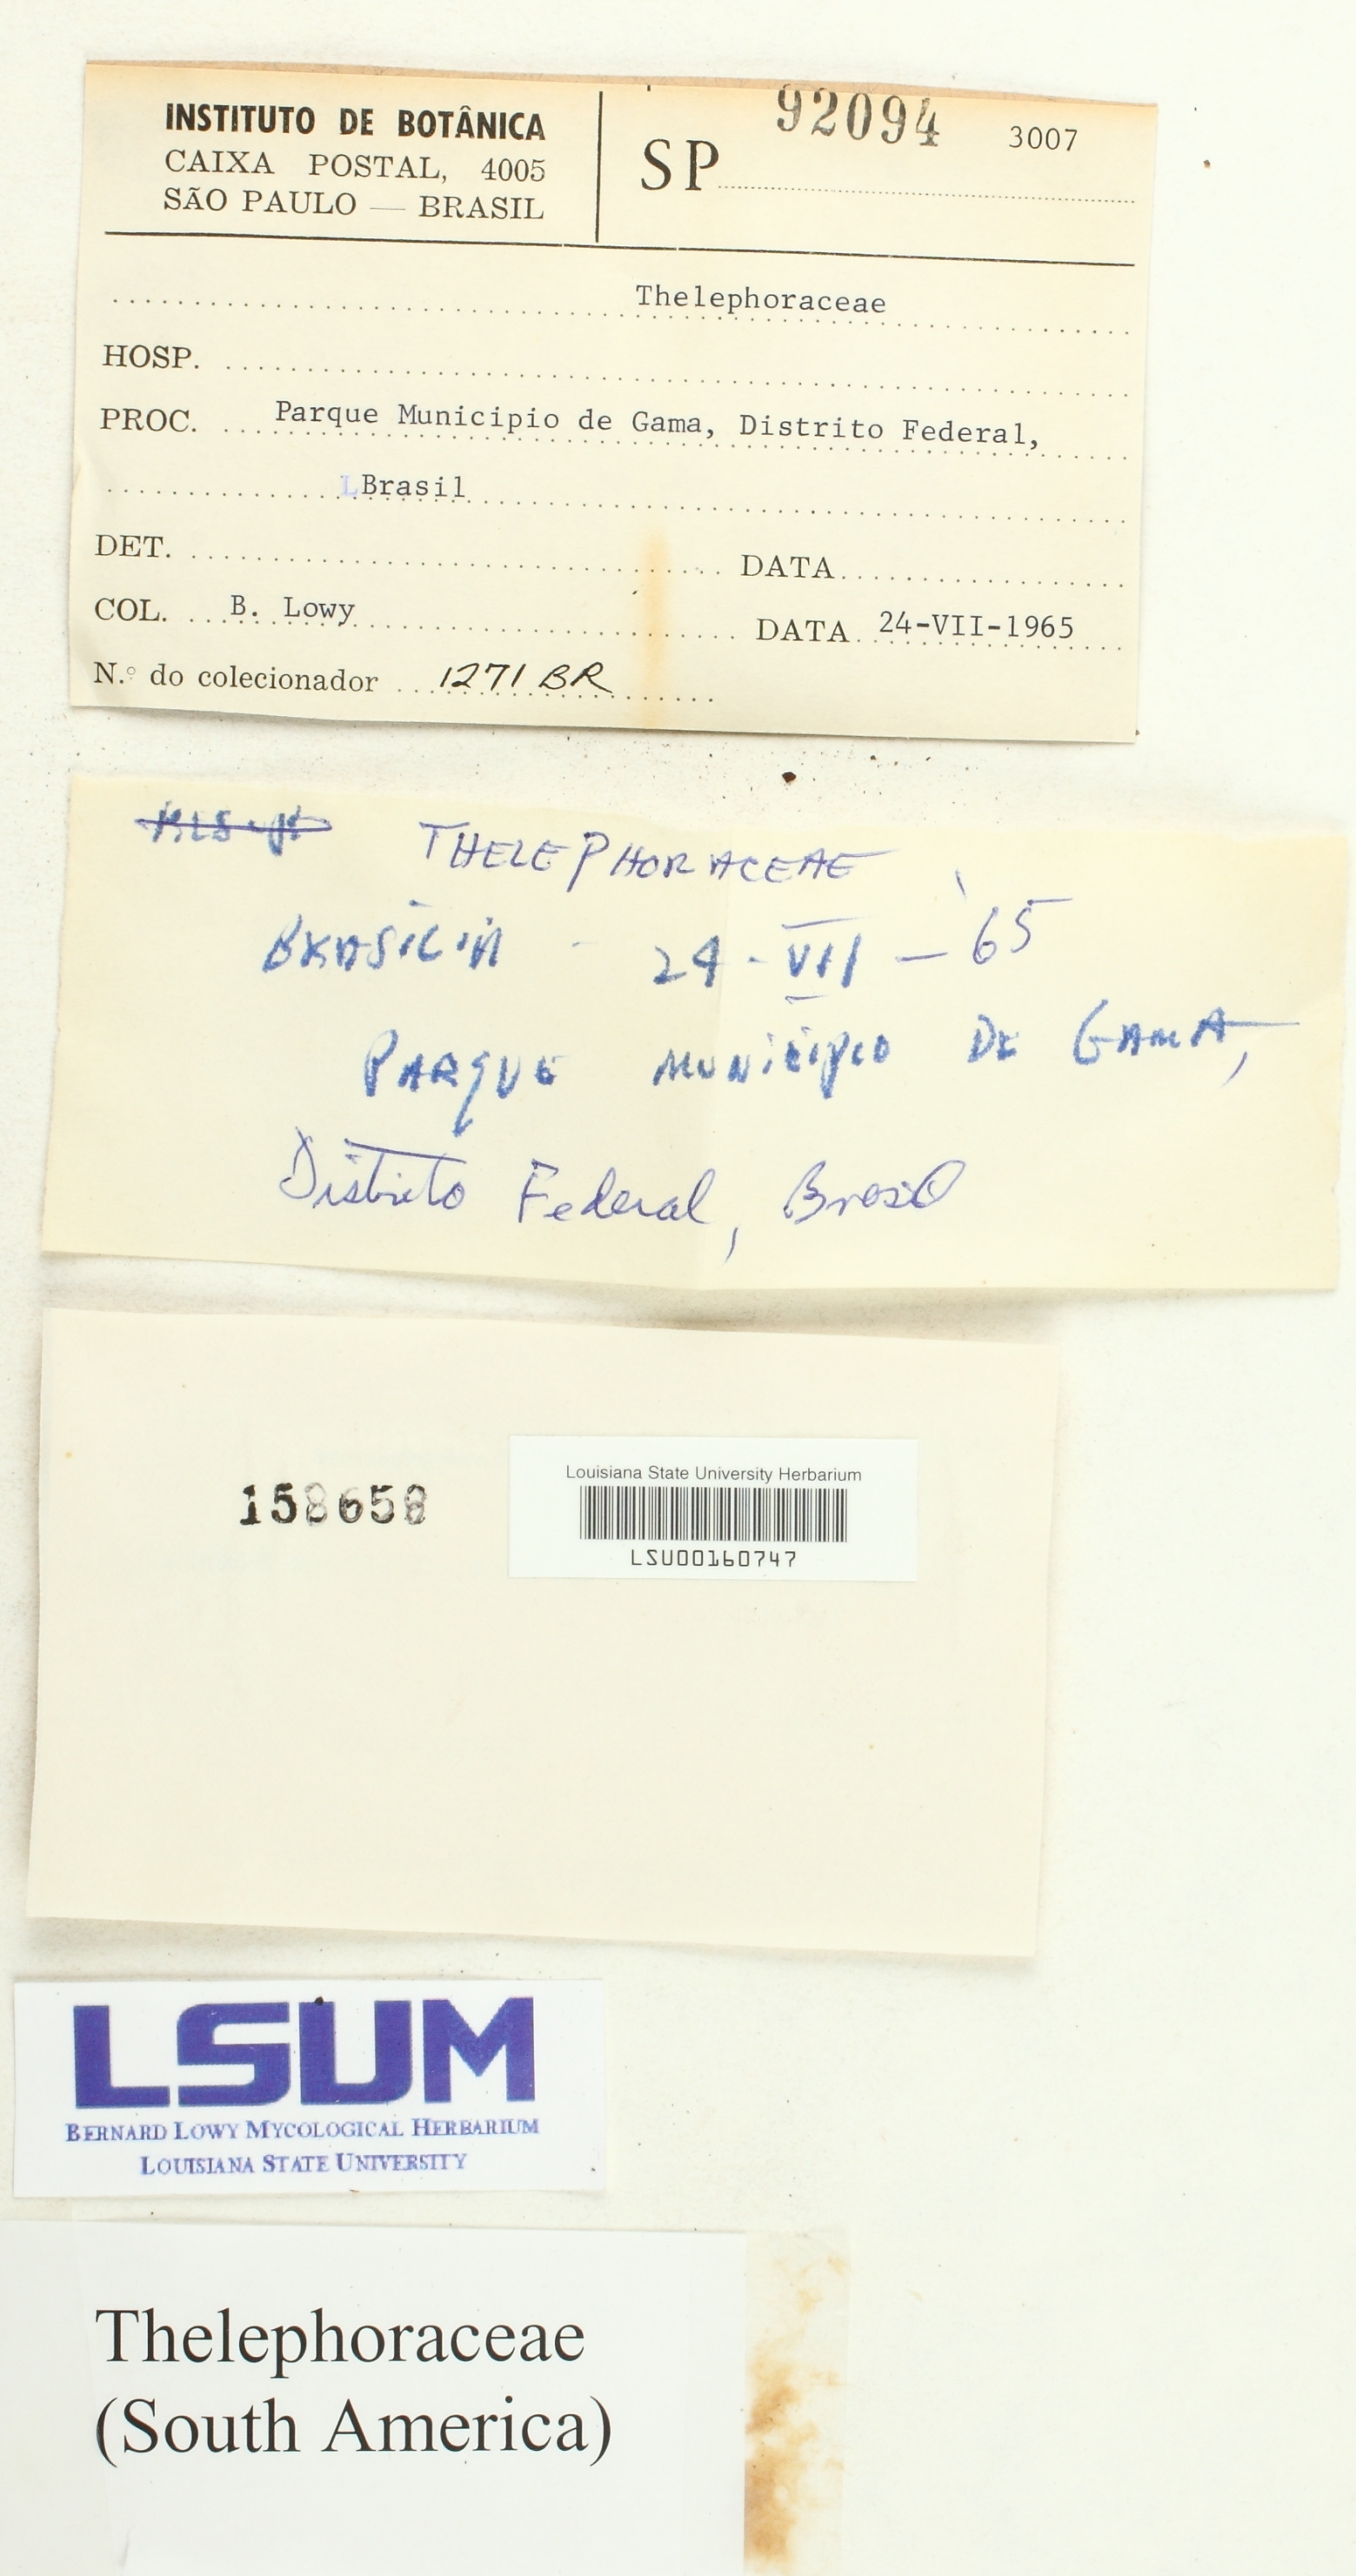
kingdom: Fungi
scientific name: Fungi
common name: Fungi
